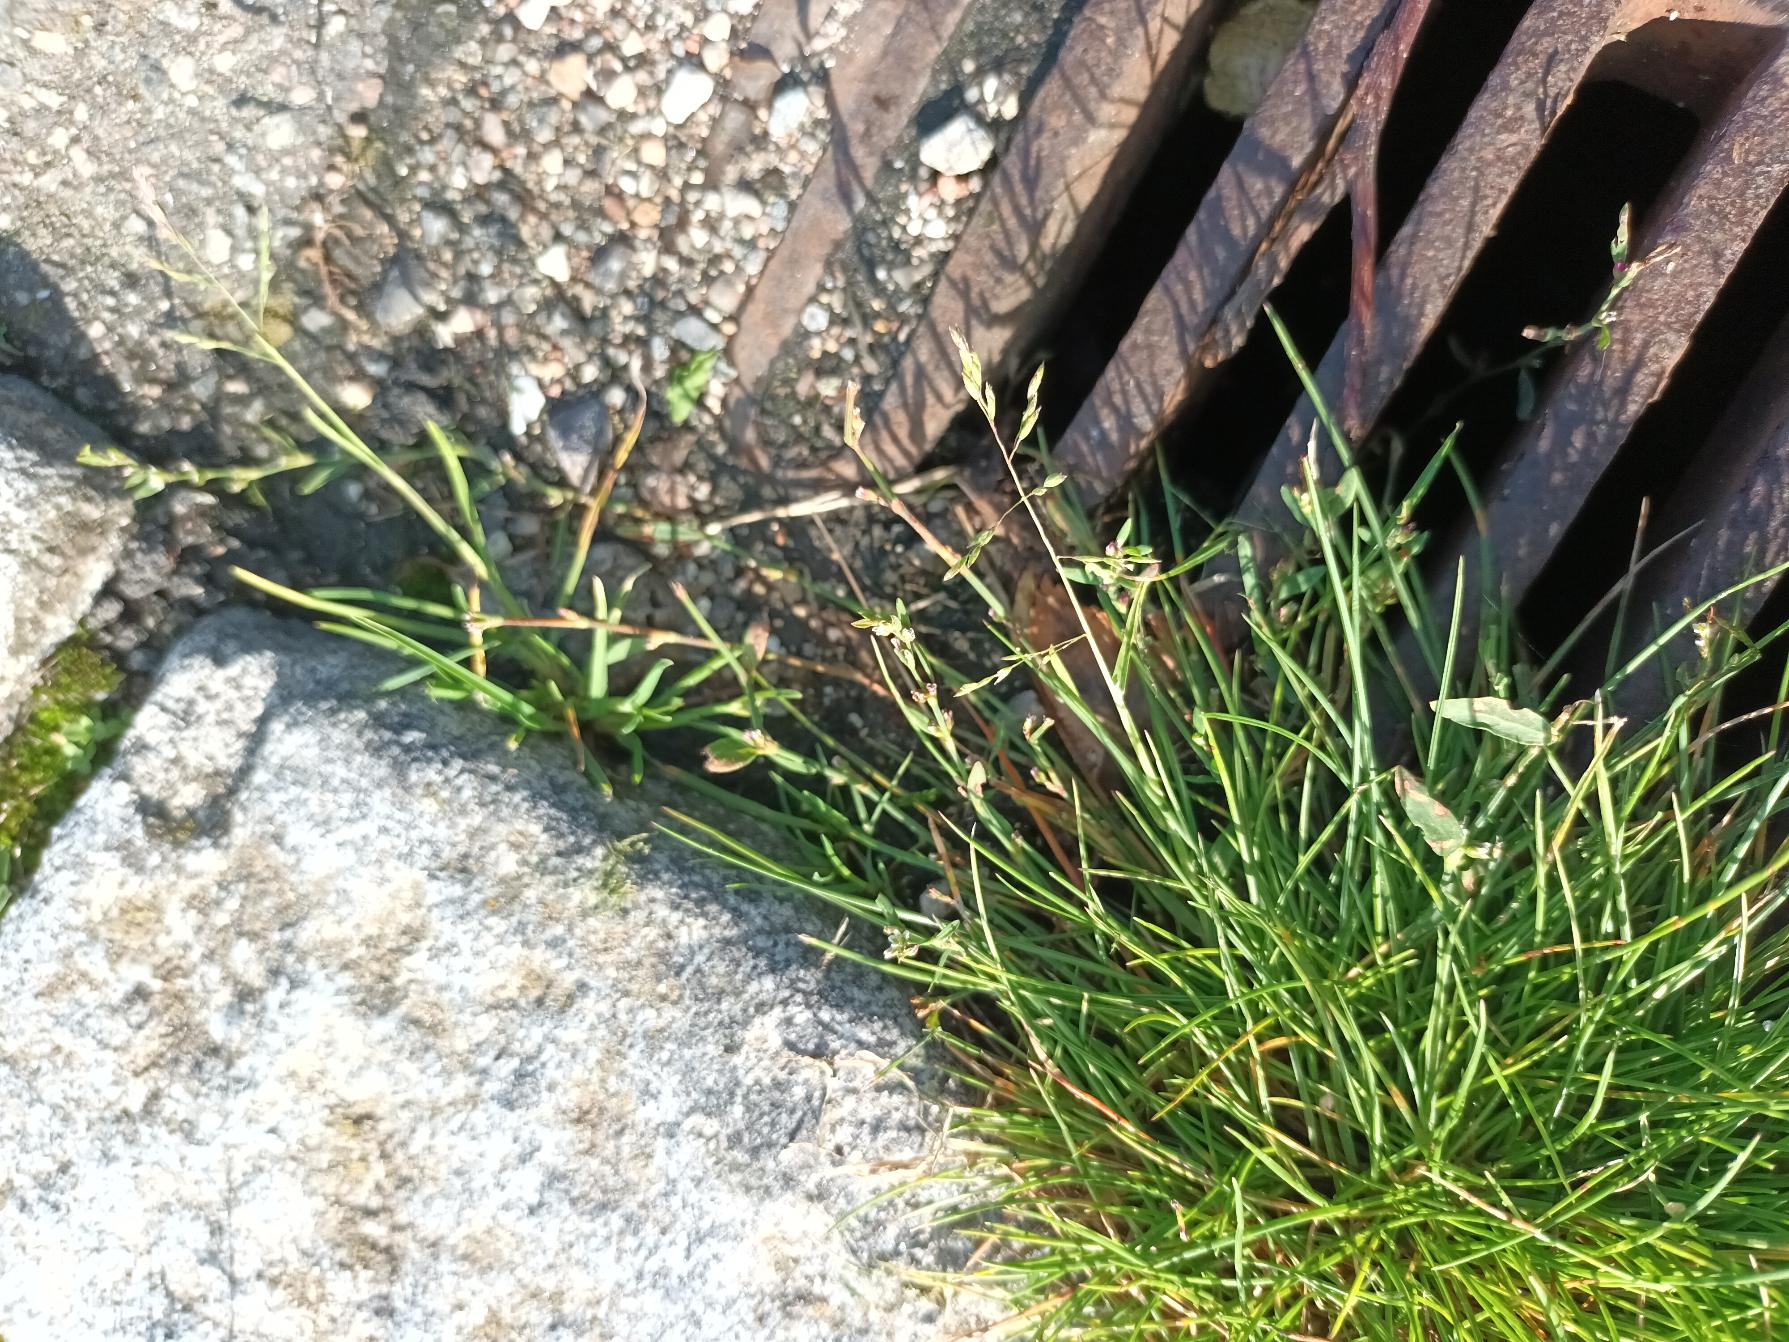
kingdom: Plantae
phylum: Tracheophyta
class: Liliopsida
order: Poales
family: Poaceae
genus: Poa
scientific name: Poa annua
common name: Enårig rapgræs
